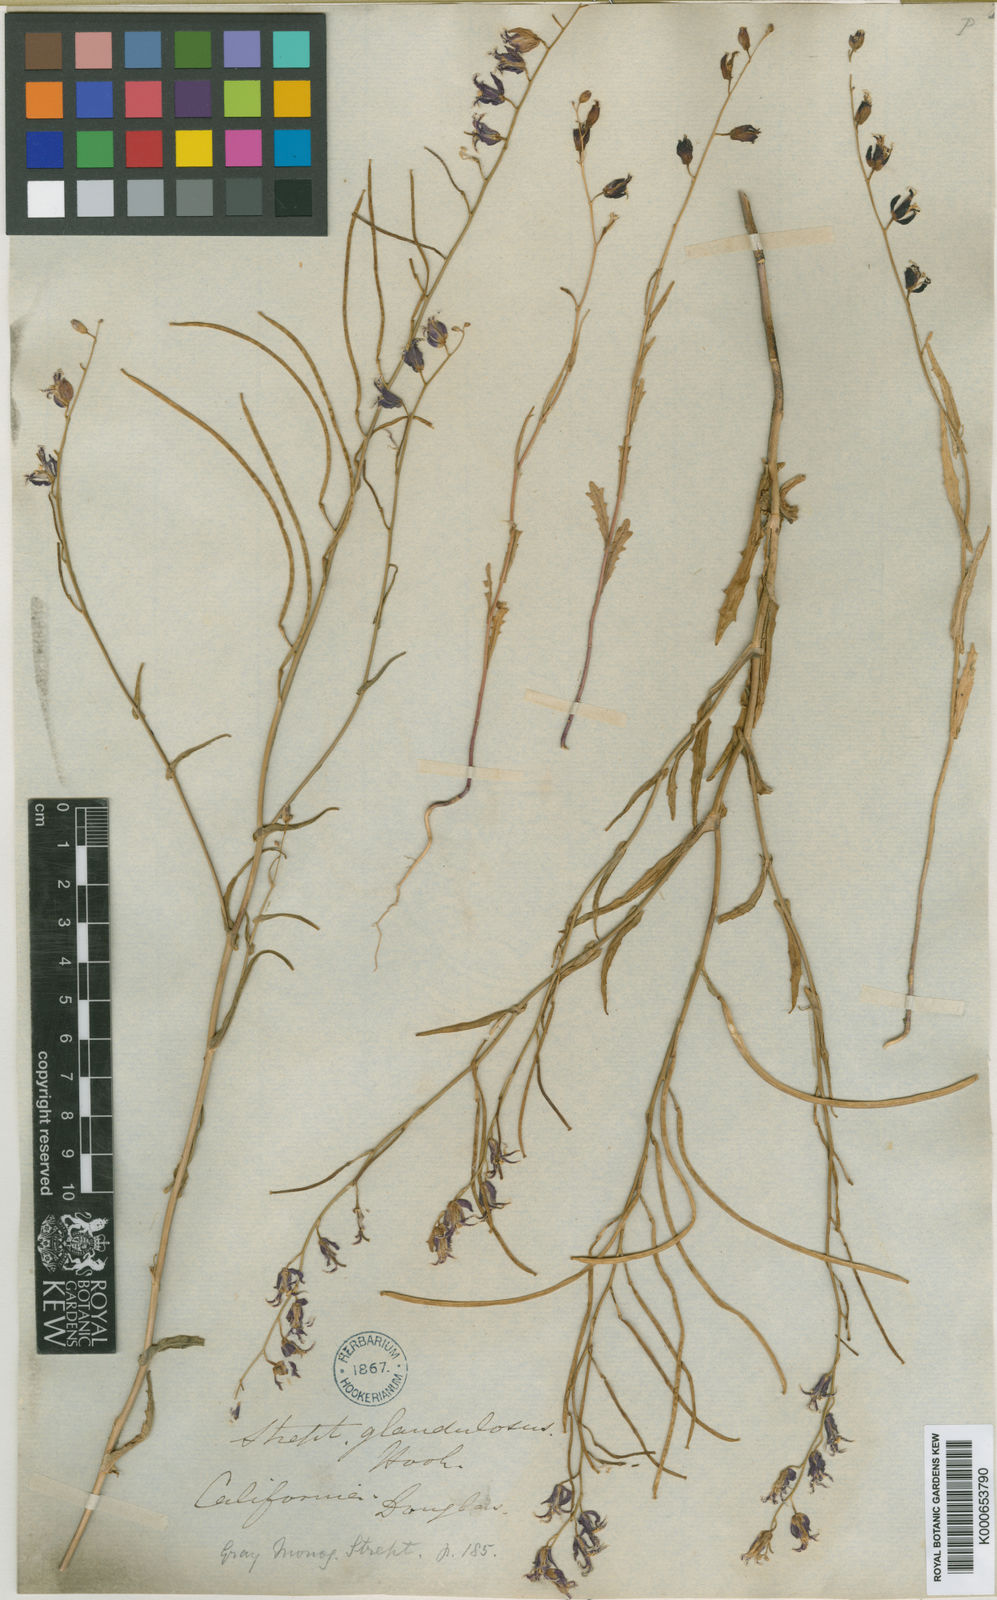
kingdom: Plantae
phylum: Tracheophyta
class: Magnoliopsida
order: Brassicales
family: Brassicaceae
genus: Streptanthus
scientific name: Streptanthus glandulosus
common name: Jewel-flower
